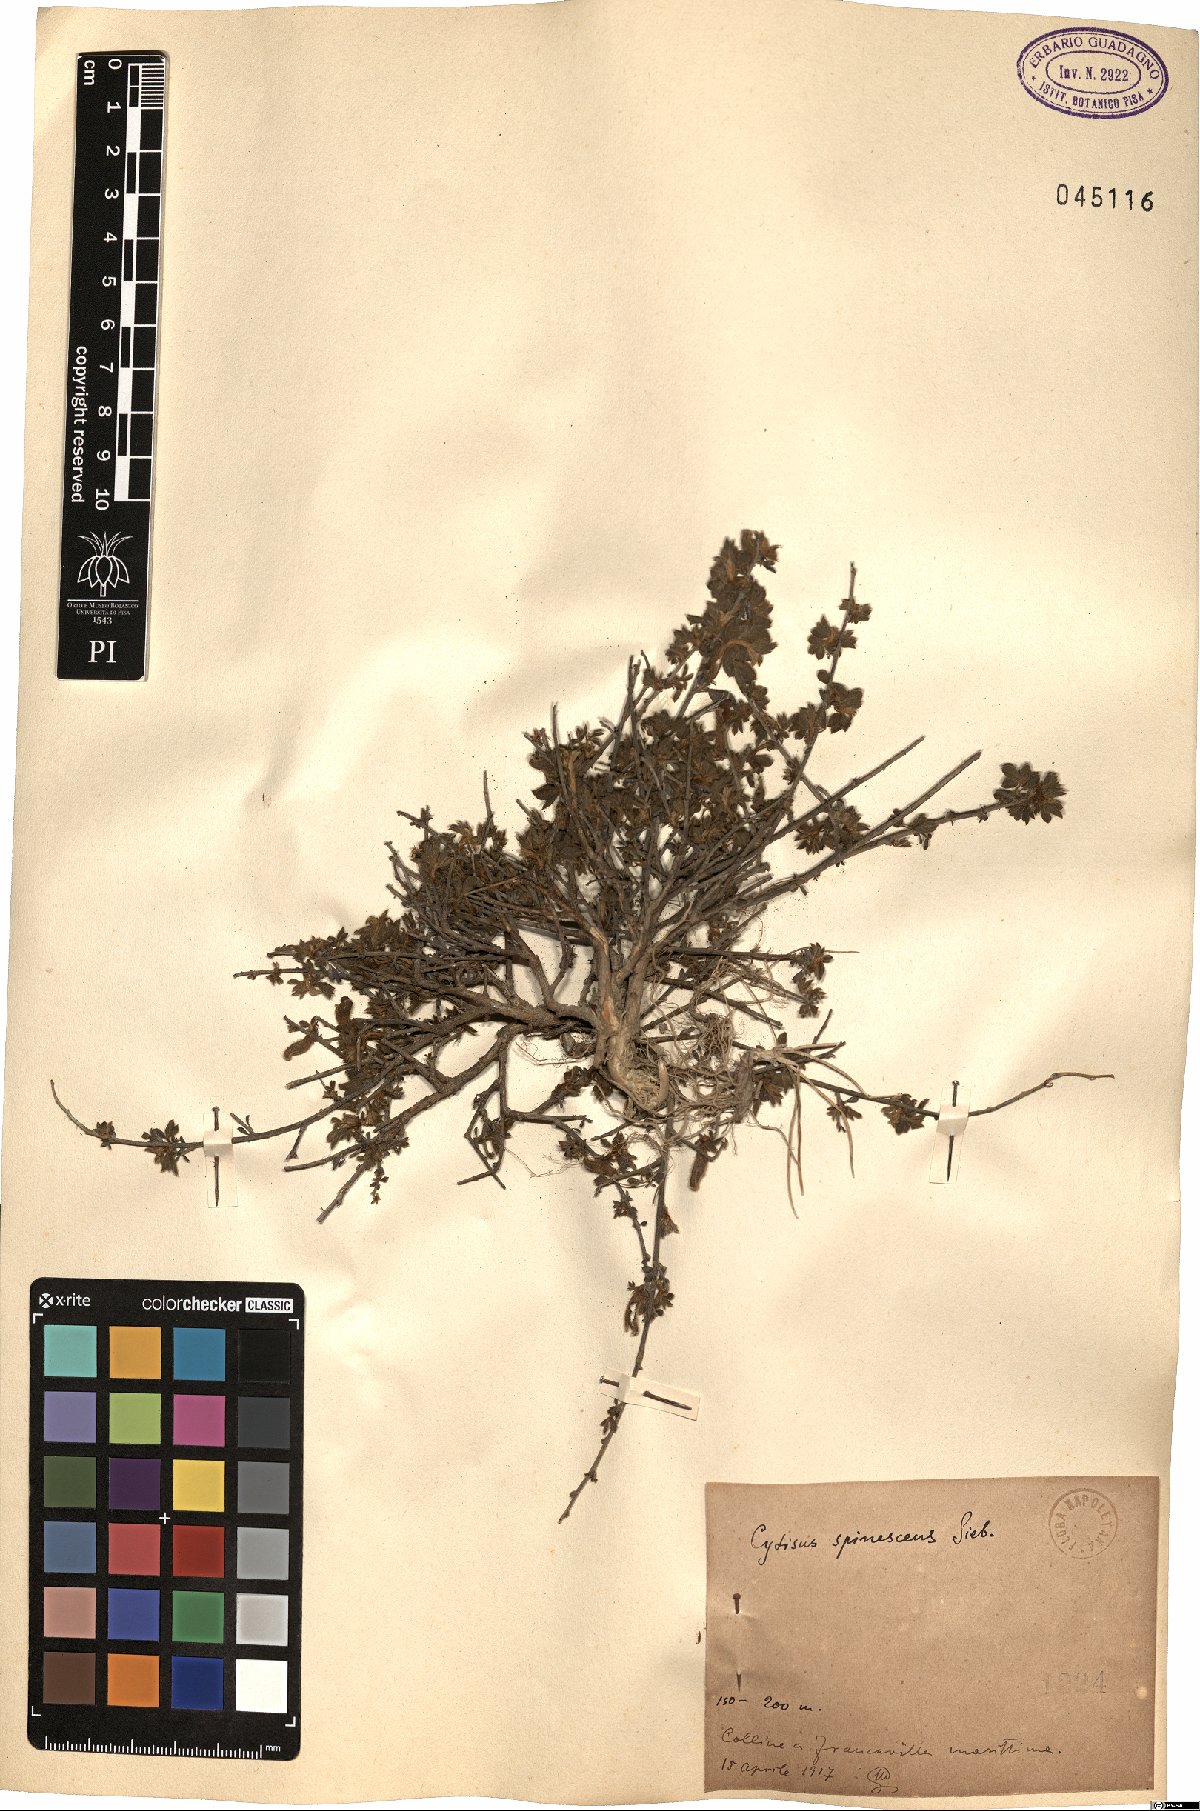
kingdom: Plantae
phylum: Tracheophyta
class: Magnoliopsida
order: Fabales
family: Fabaceae
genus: Chamaecytisus
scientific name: Chamaecytisus spinescens
